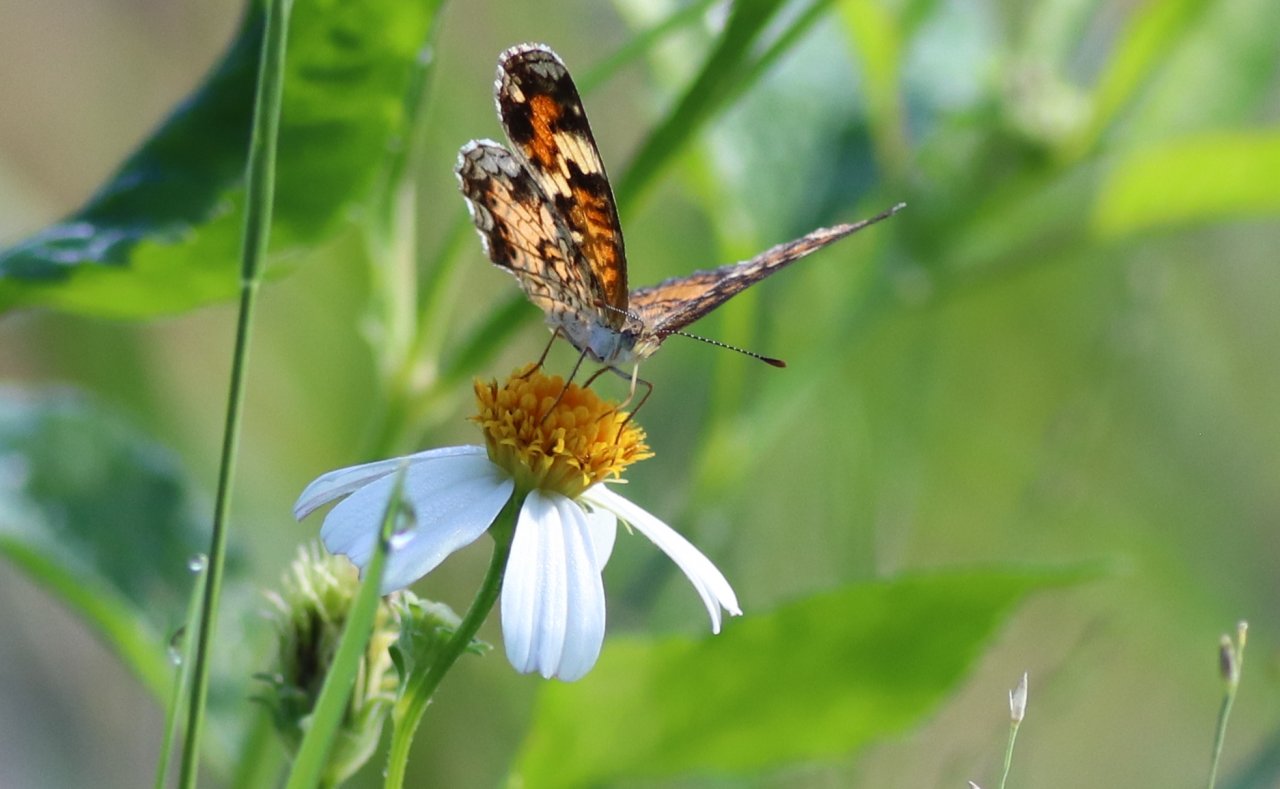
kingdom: Animalia
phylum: Arthropoda
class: Insecta
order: Lepidoptera
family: Nymphalidae
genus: Phyciodes
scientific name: Phyciodes phaon
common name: Phaon Crescent
